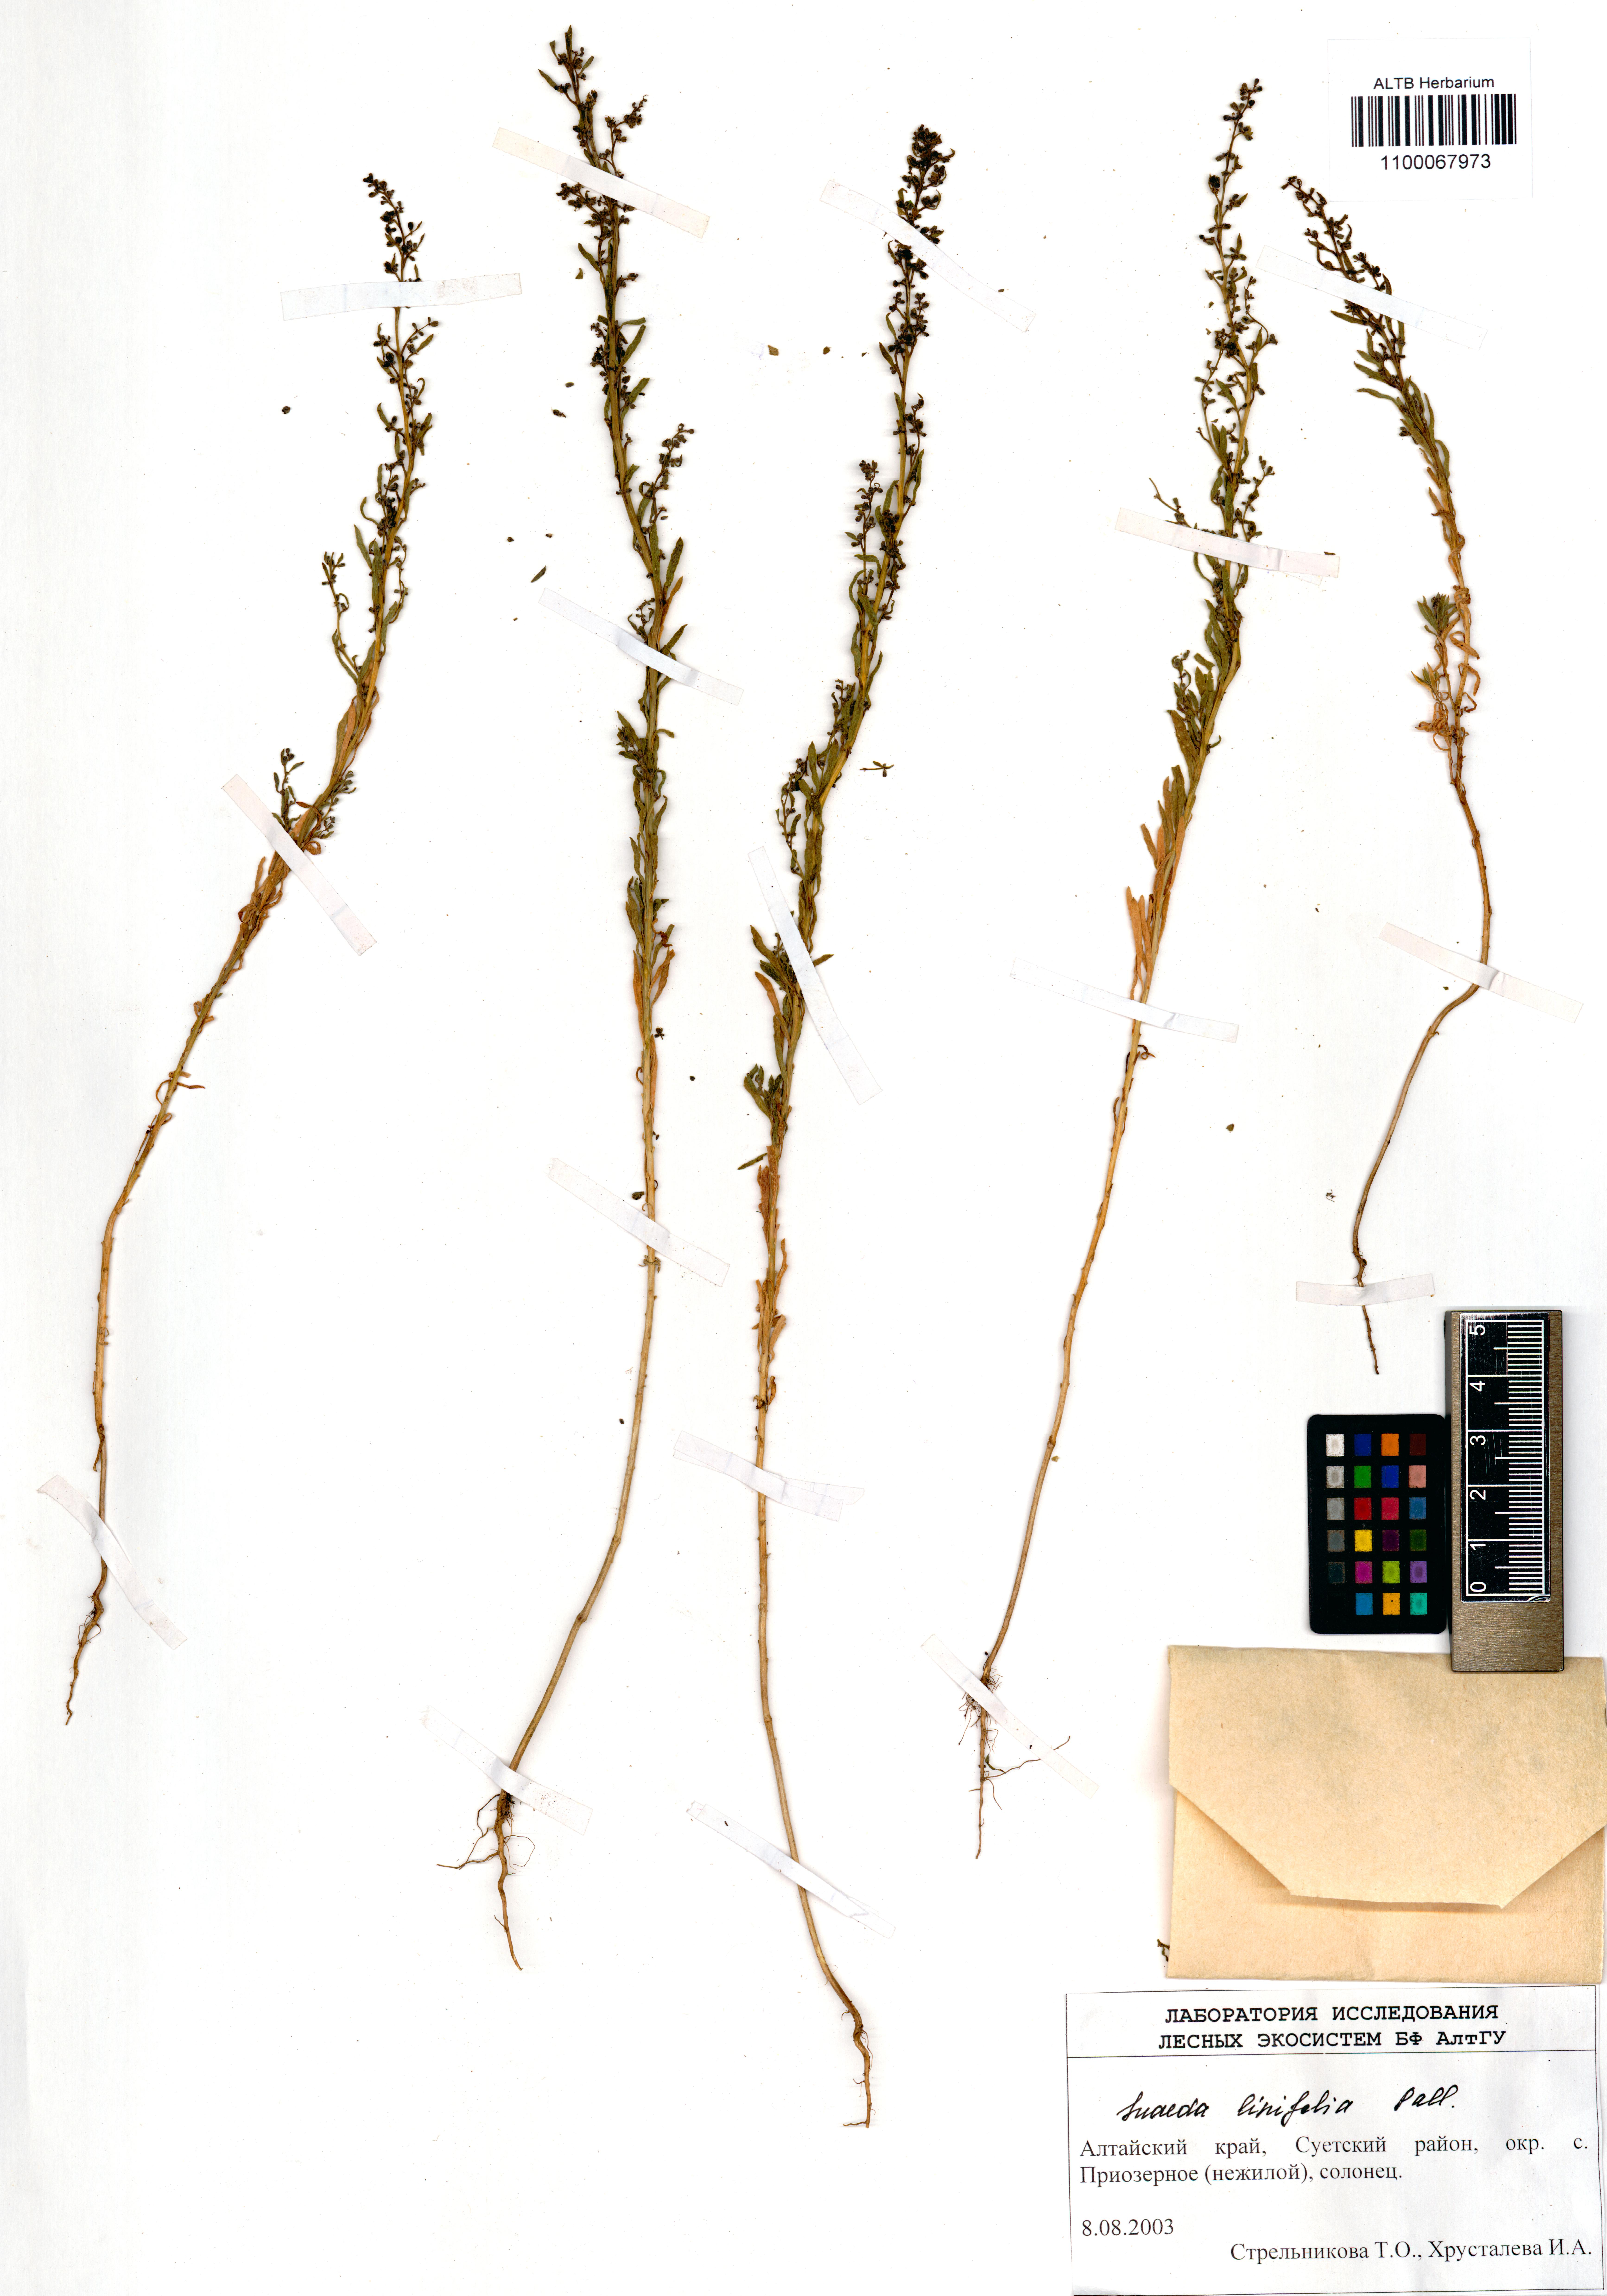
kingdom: Plantae
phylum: Tracheophyta
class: Magnoliopsida
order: Caryophyllales
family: Amaranthaceae
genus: Suaeda
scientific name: Suaeda linifolia
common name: Pin-leaf seepweed
